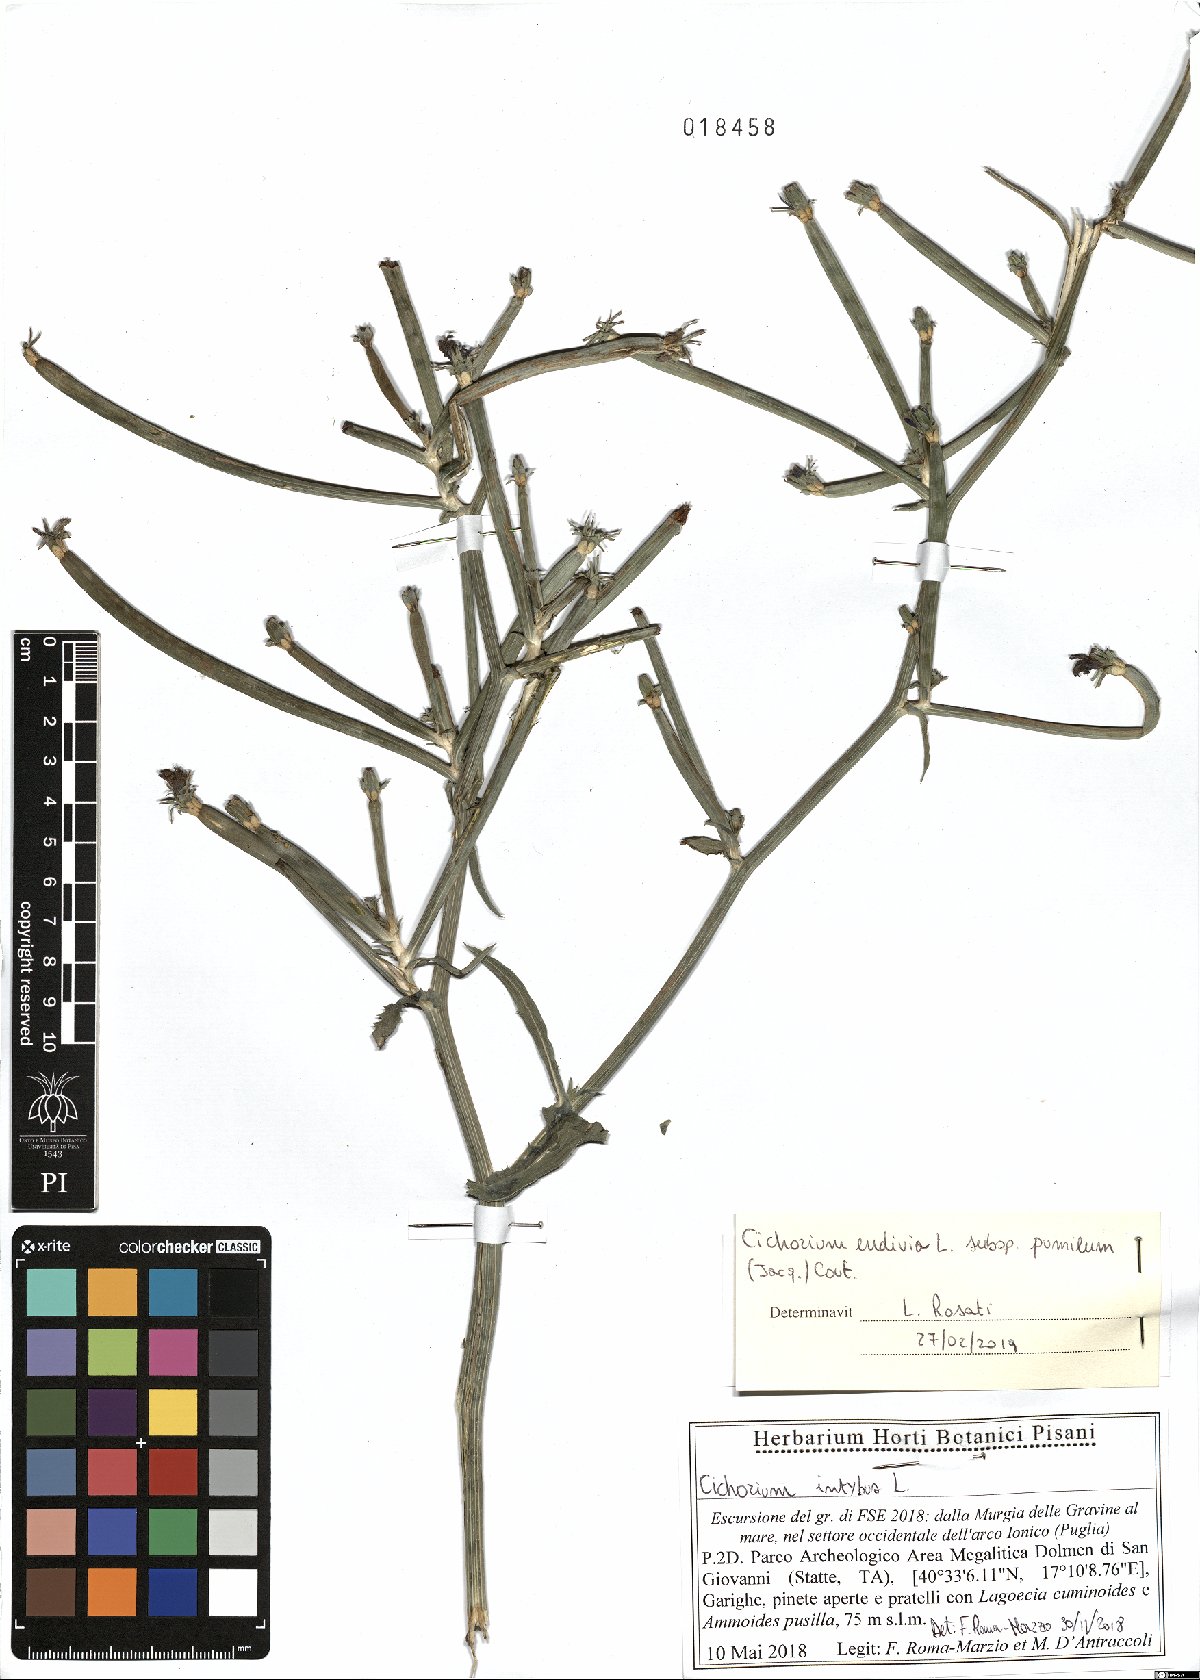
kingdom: Plantae
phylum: Tracheophyta
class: Magnoliopsida
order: Asterales
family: Asteraceae
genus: Cichorium
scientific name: Cichorium pumilum
